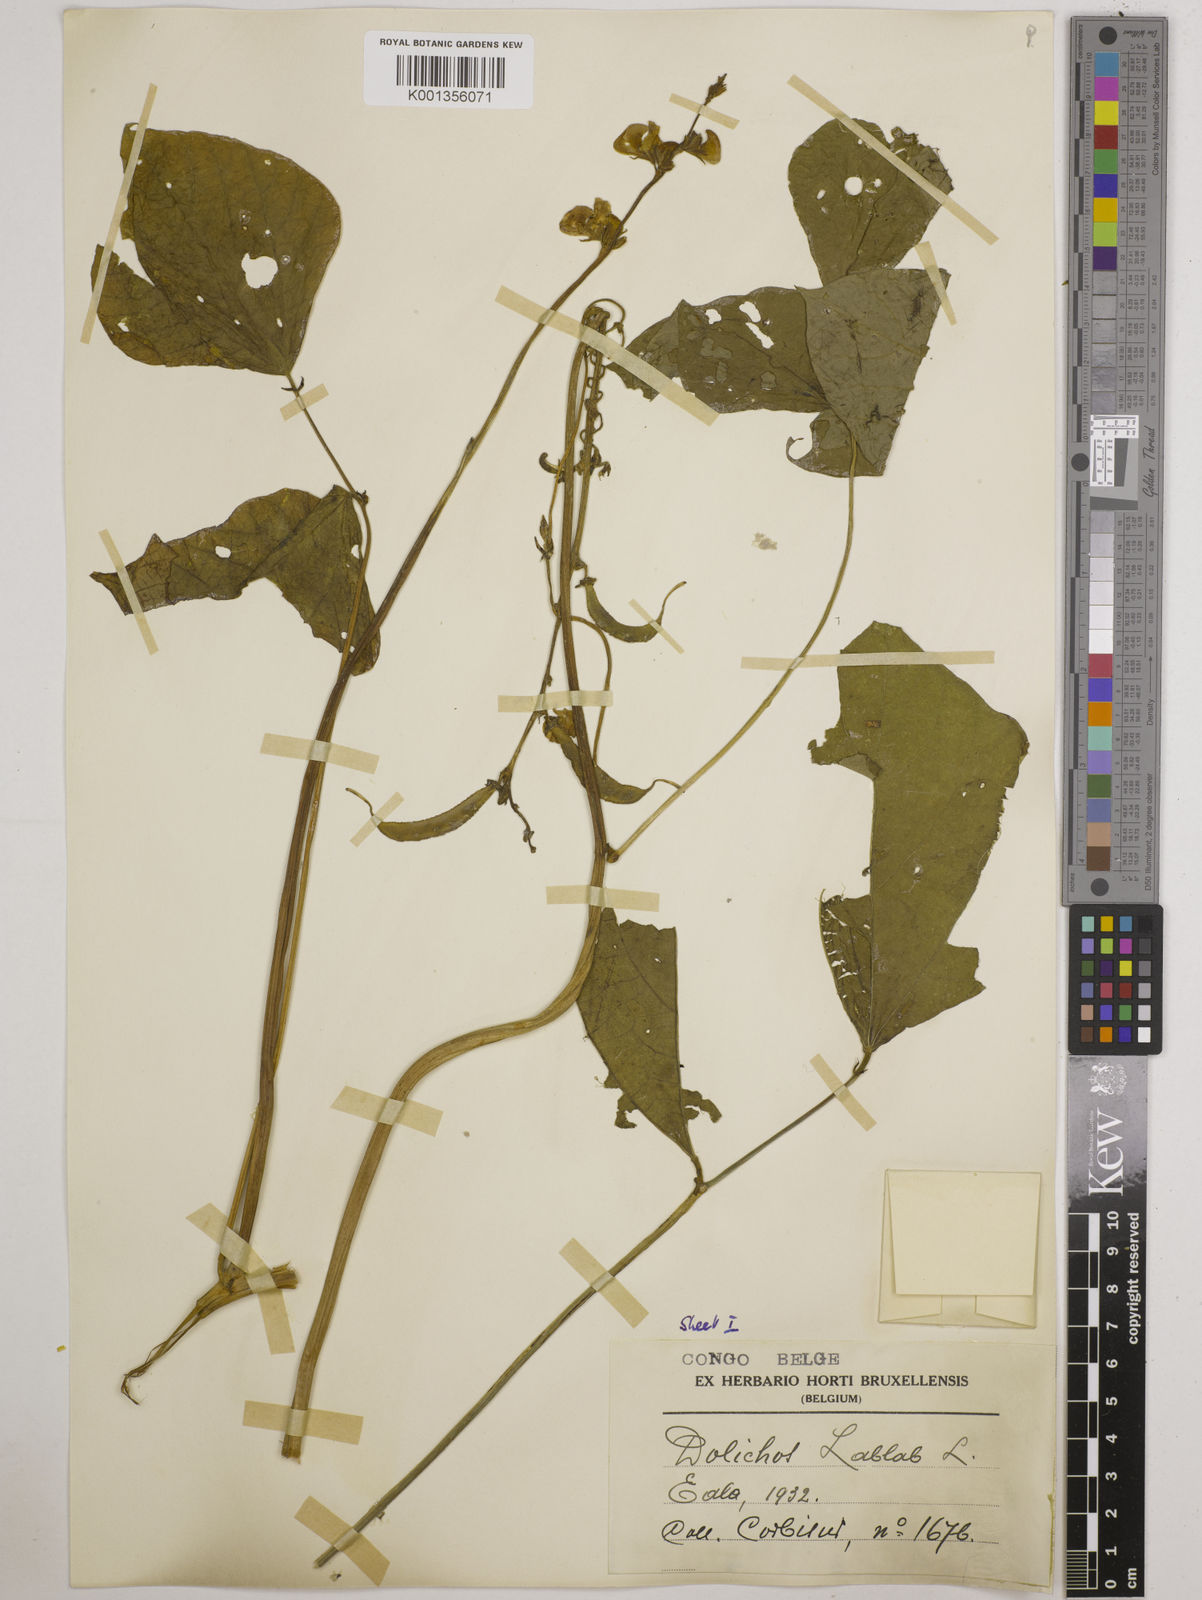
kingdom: Plantae
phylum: Tracheophyta
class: Magnoliopsida
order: Fabales
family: Fabaceae
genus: Lablab
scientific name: Lablab purpureus
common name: Lablab-bean
